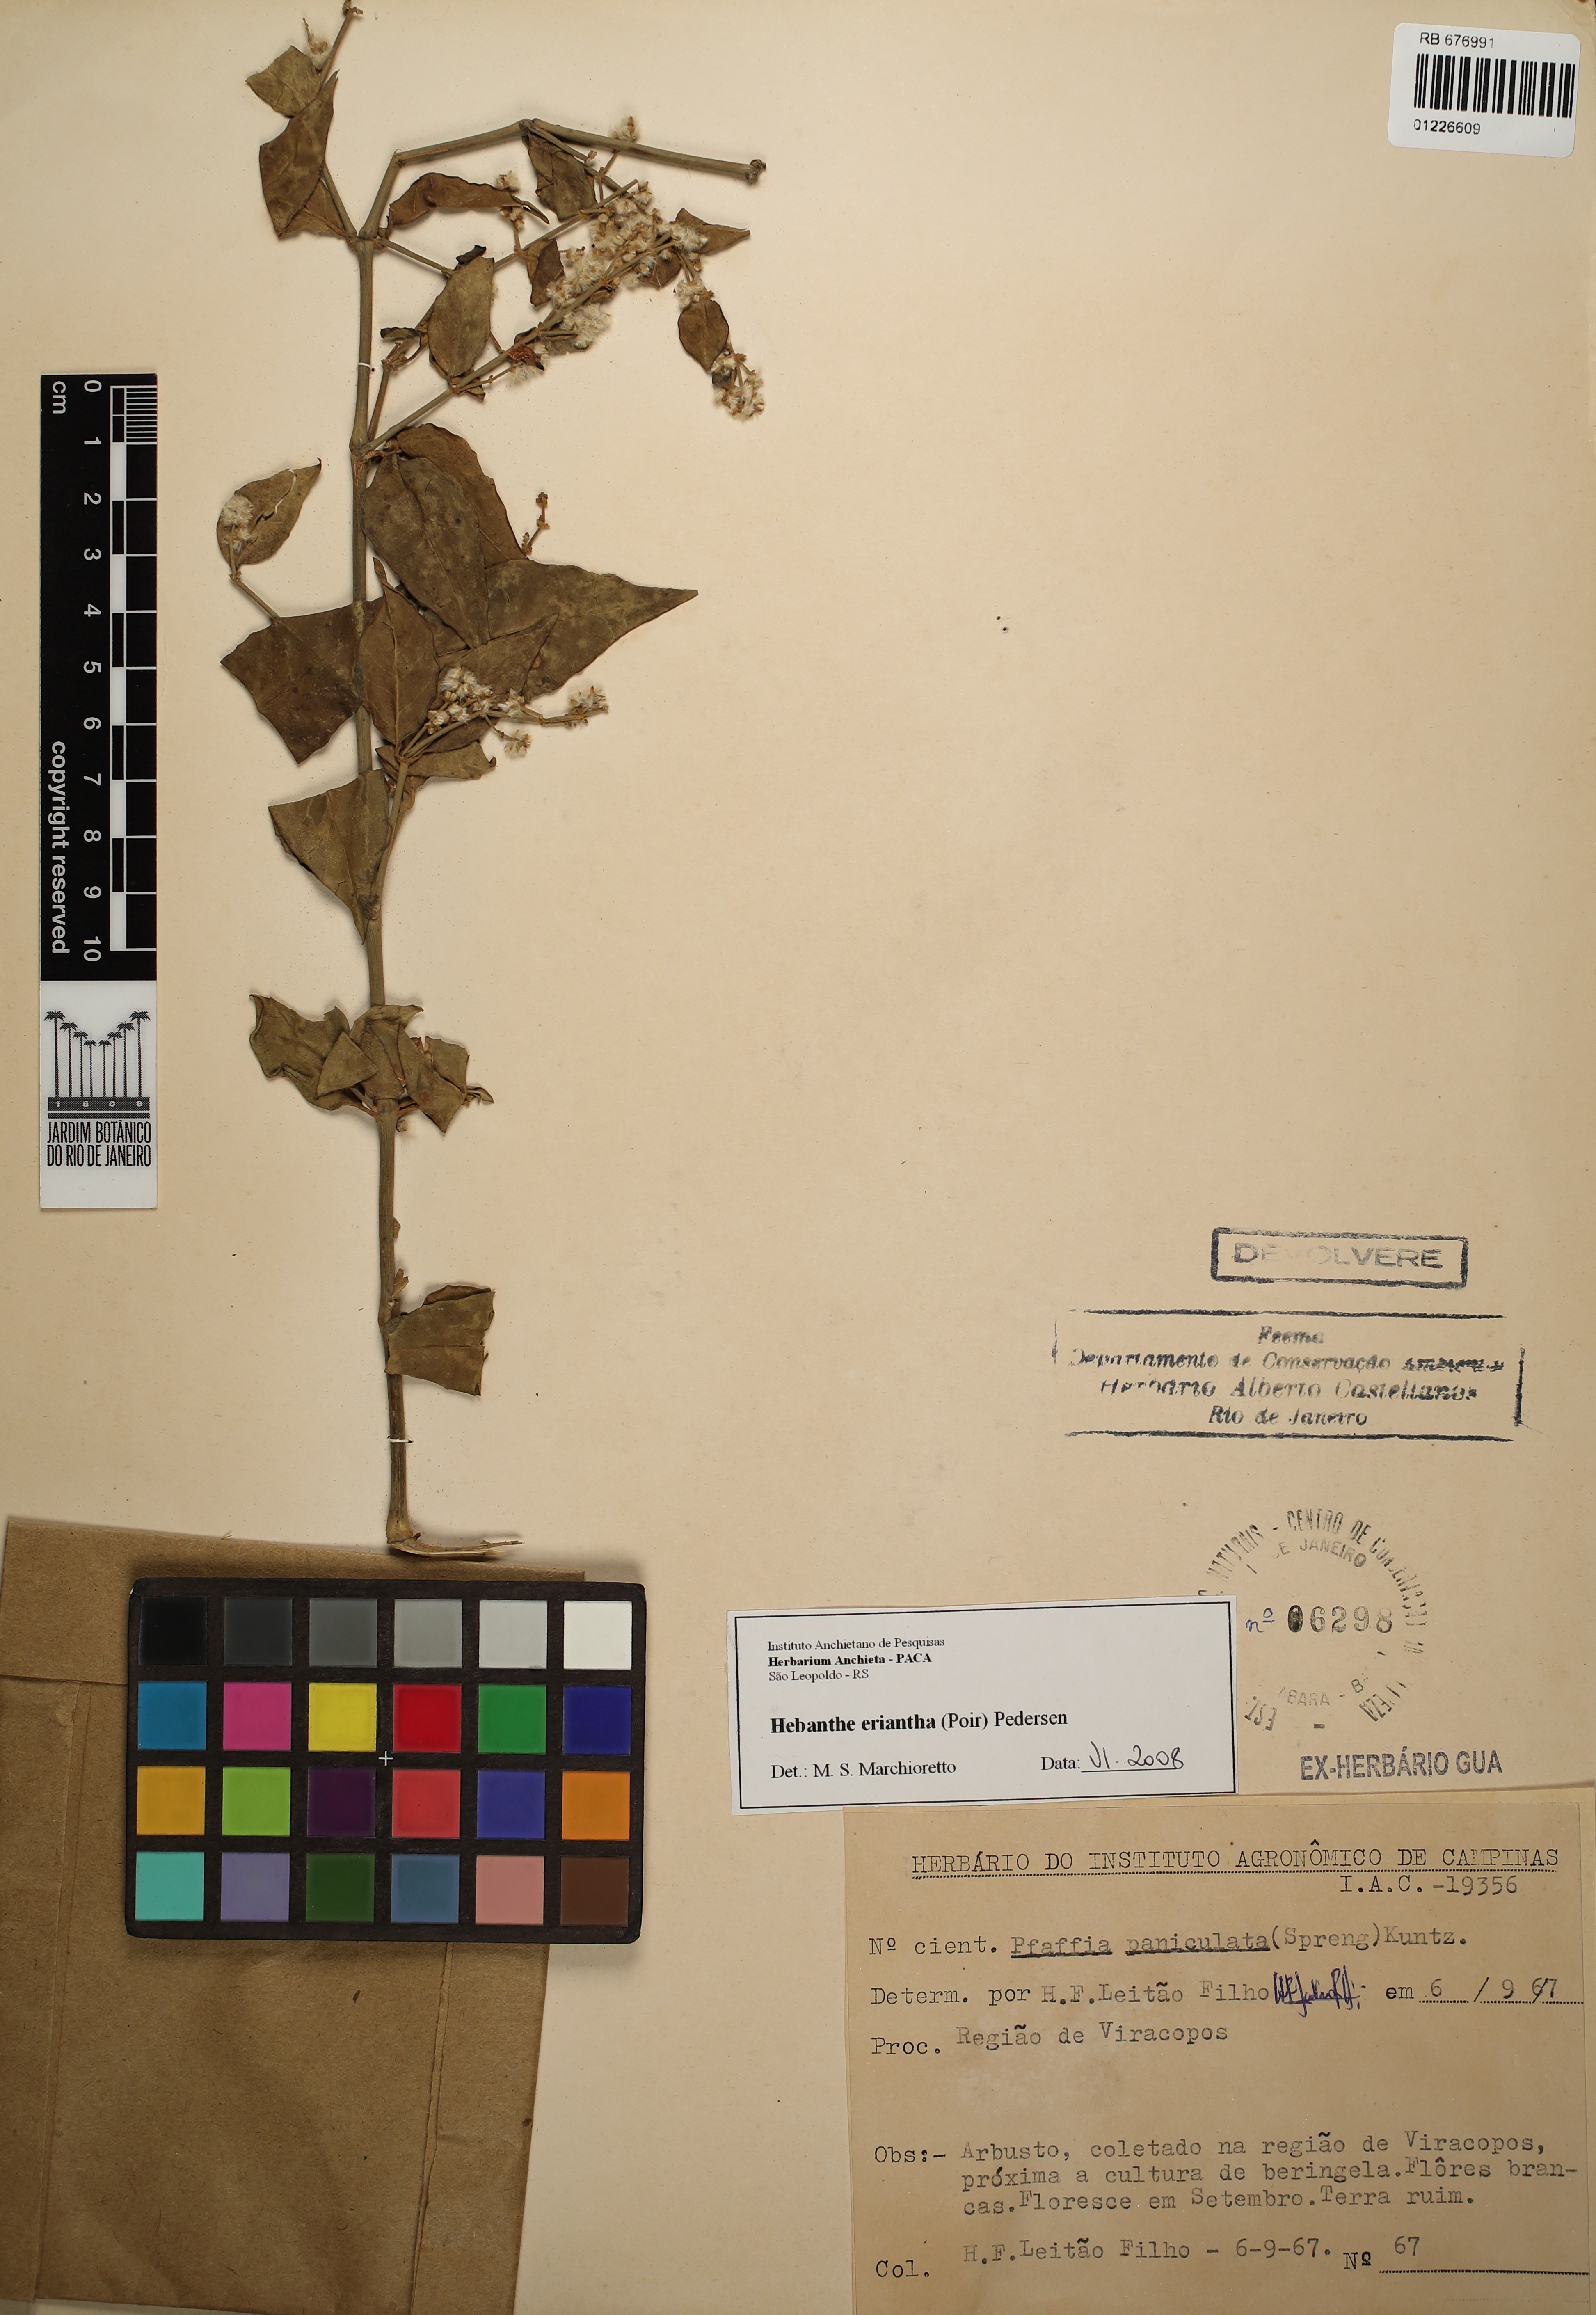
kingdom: Plantae
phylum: Tracheophyta
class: Magnoliopsida
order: Caryophyllales
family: Amaranthaceae
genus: Hebanthe
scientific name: Hebanthe erianthos
